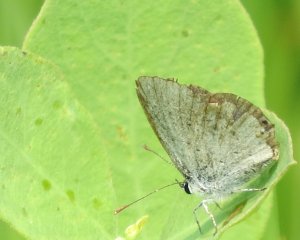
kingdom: Animalia
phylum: Arthropoda
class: Insecta
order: Lepidoptera
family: Lycaenidae
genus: Plebejus
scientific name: Plebejus saepiolus
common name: Greenish Blue
